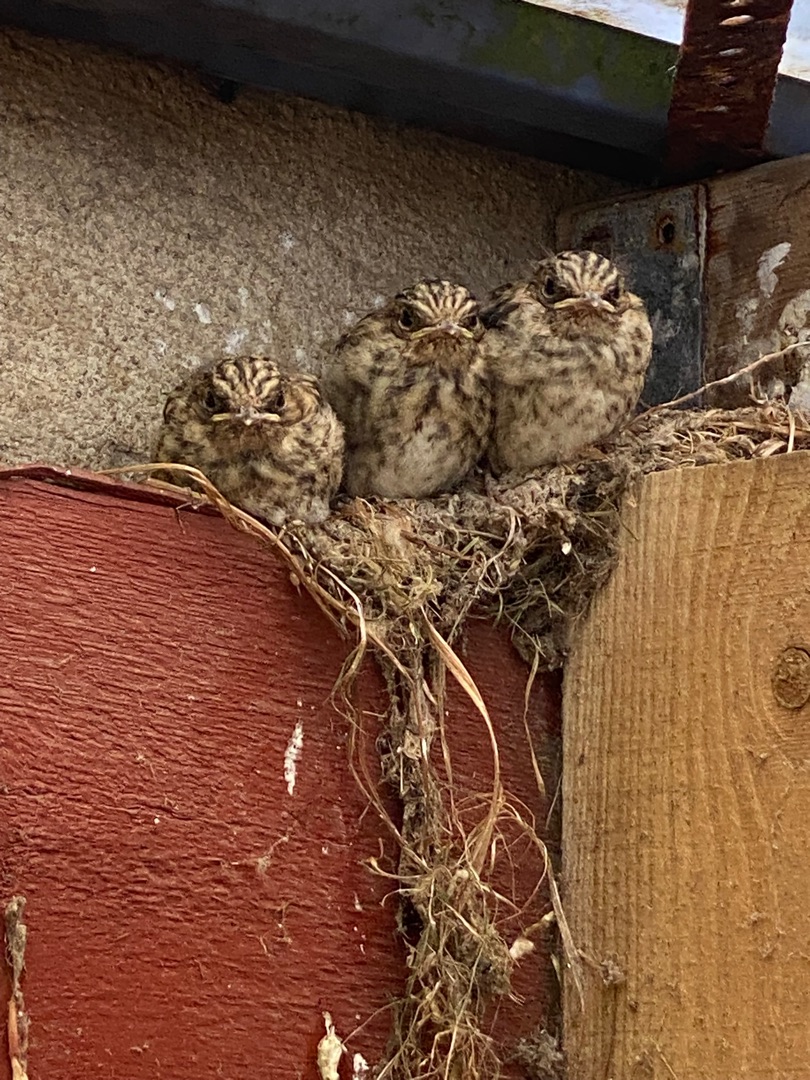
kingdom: Animalia
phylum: Chordata
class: Aves
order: Passeriformes
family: Muscicapidae
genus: Muscicapa
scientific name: Muscicapa striata
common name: Grå fluesnapper
